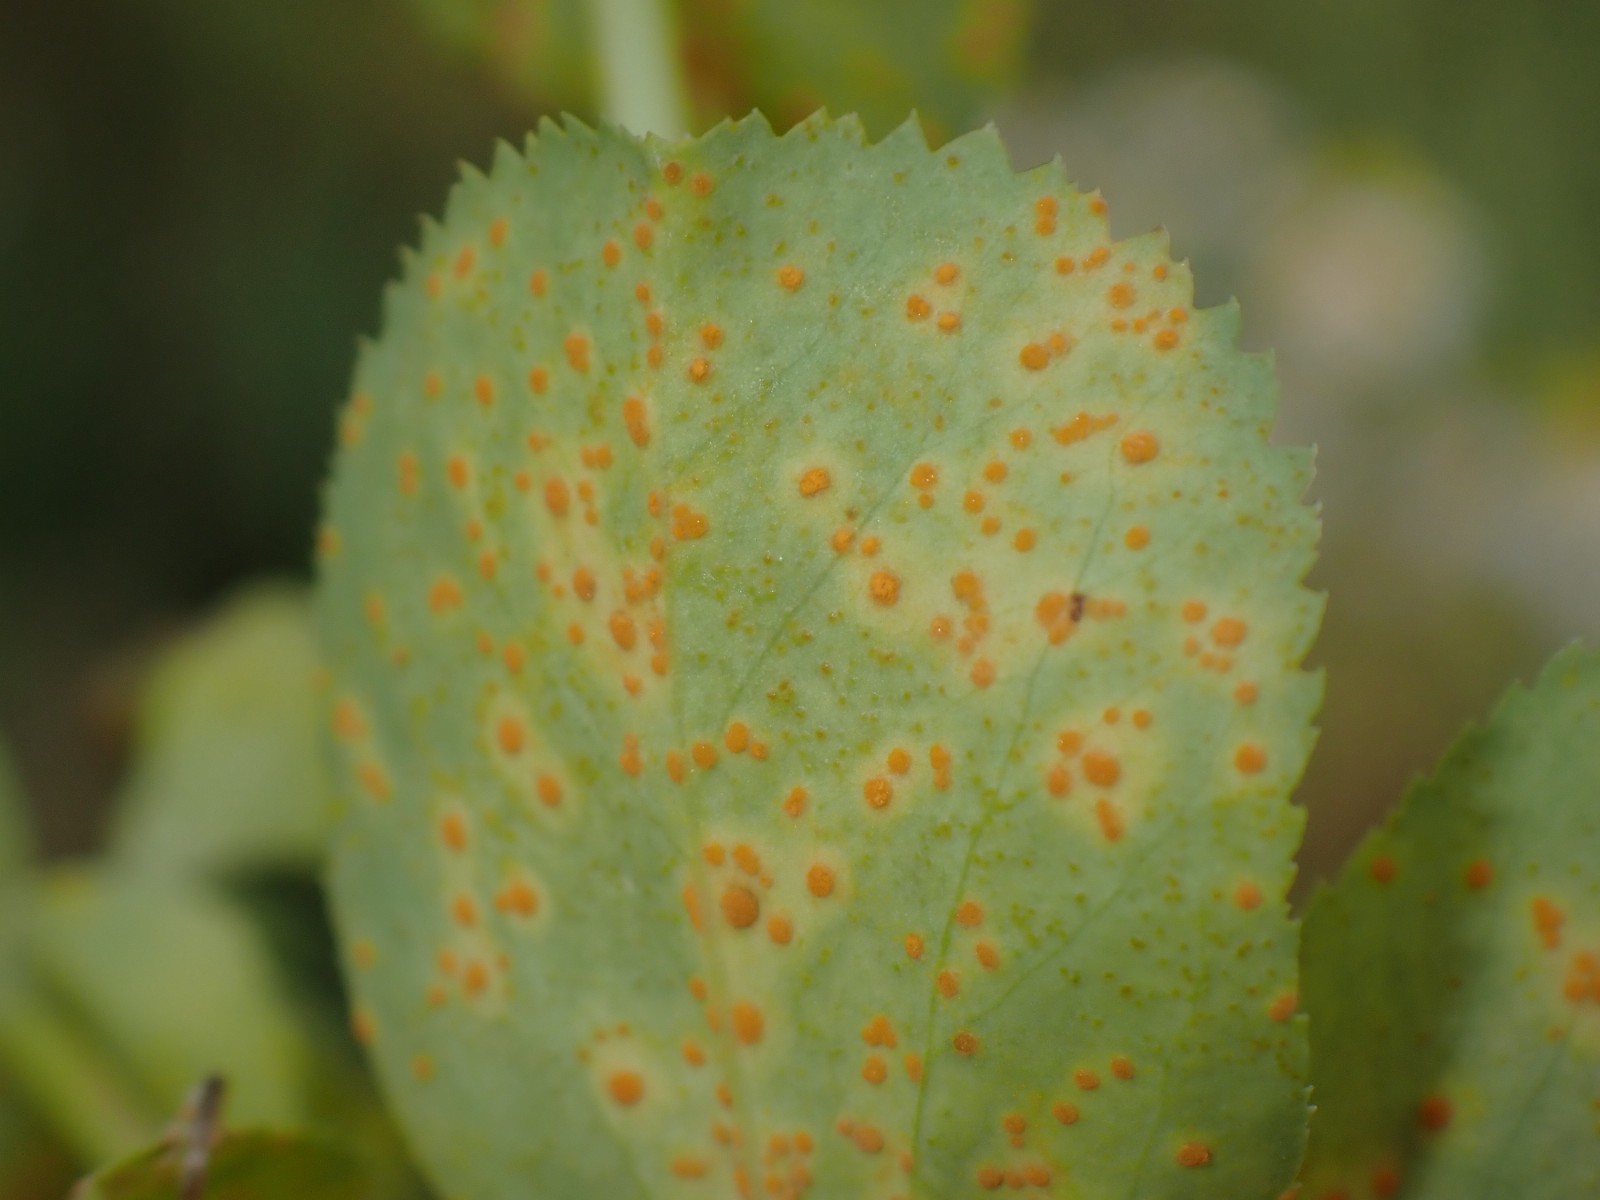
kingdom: Fungi
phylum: Basidiomycota
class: Pucciniomycetes
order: Pucciniales
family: Melampsoraceae
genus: Melampsora
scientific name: Melampsora euphorbiae
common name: vortemælk-skorperust
